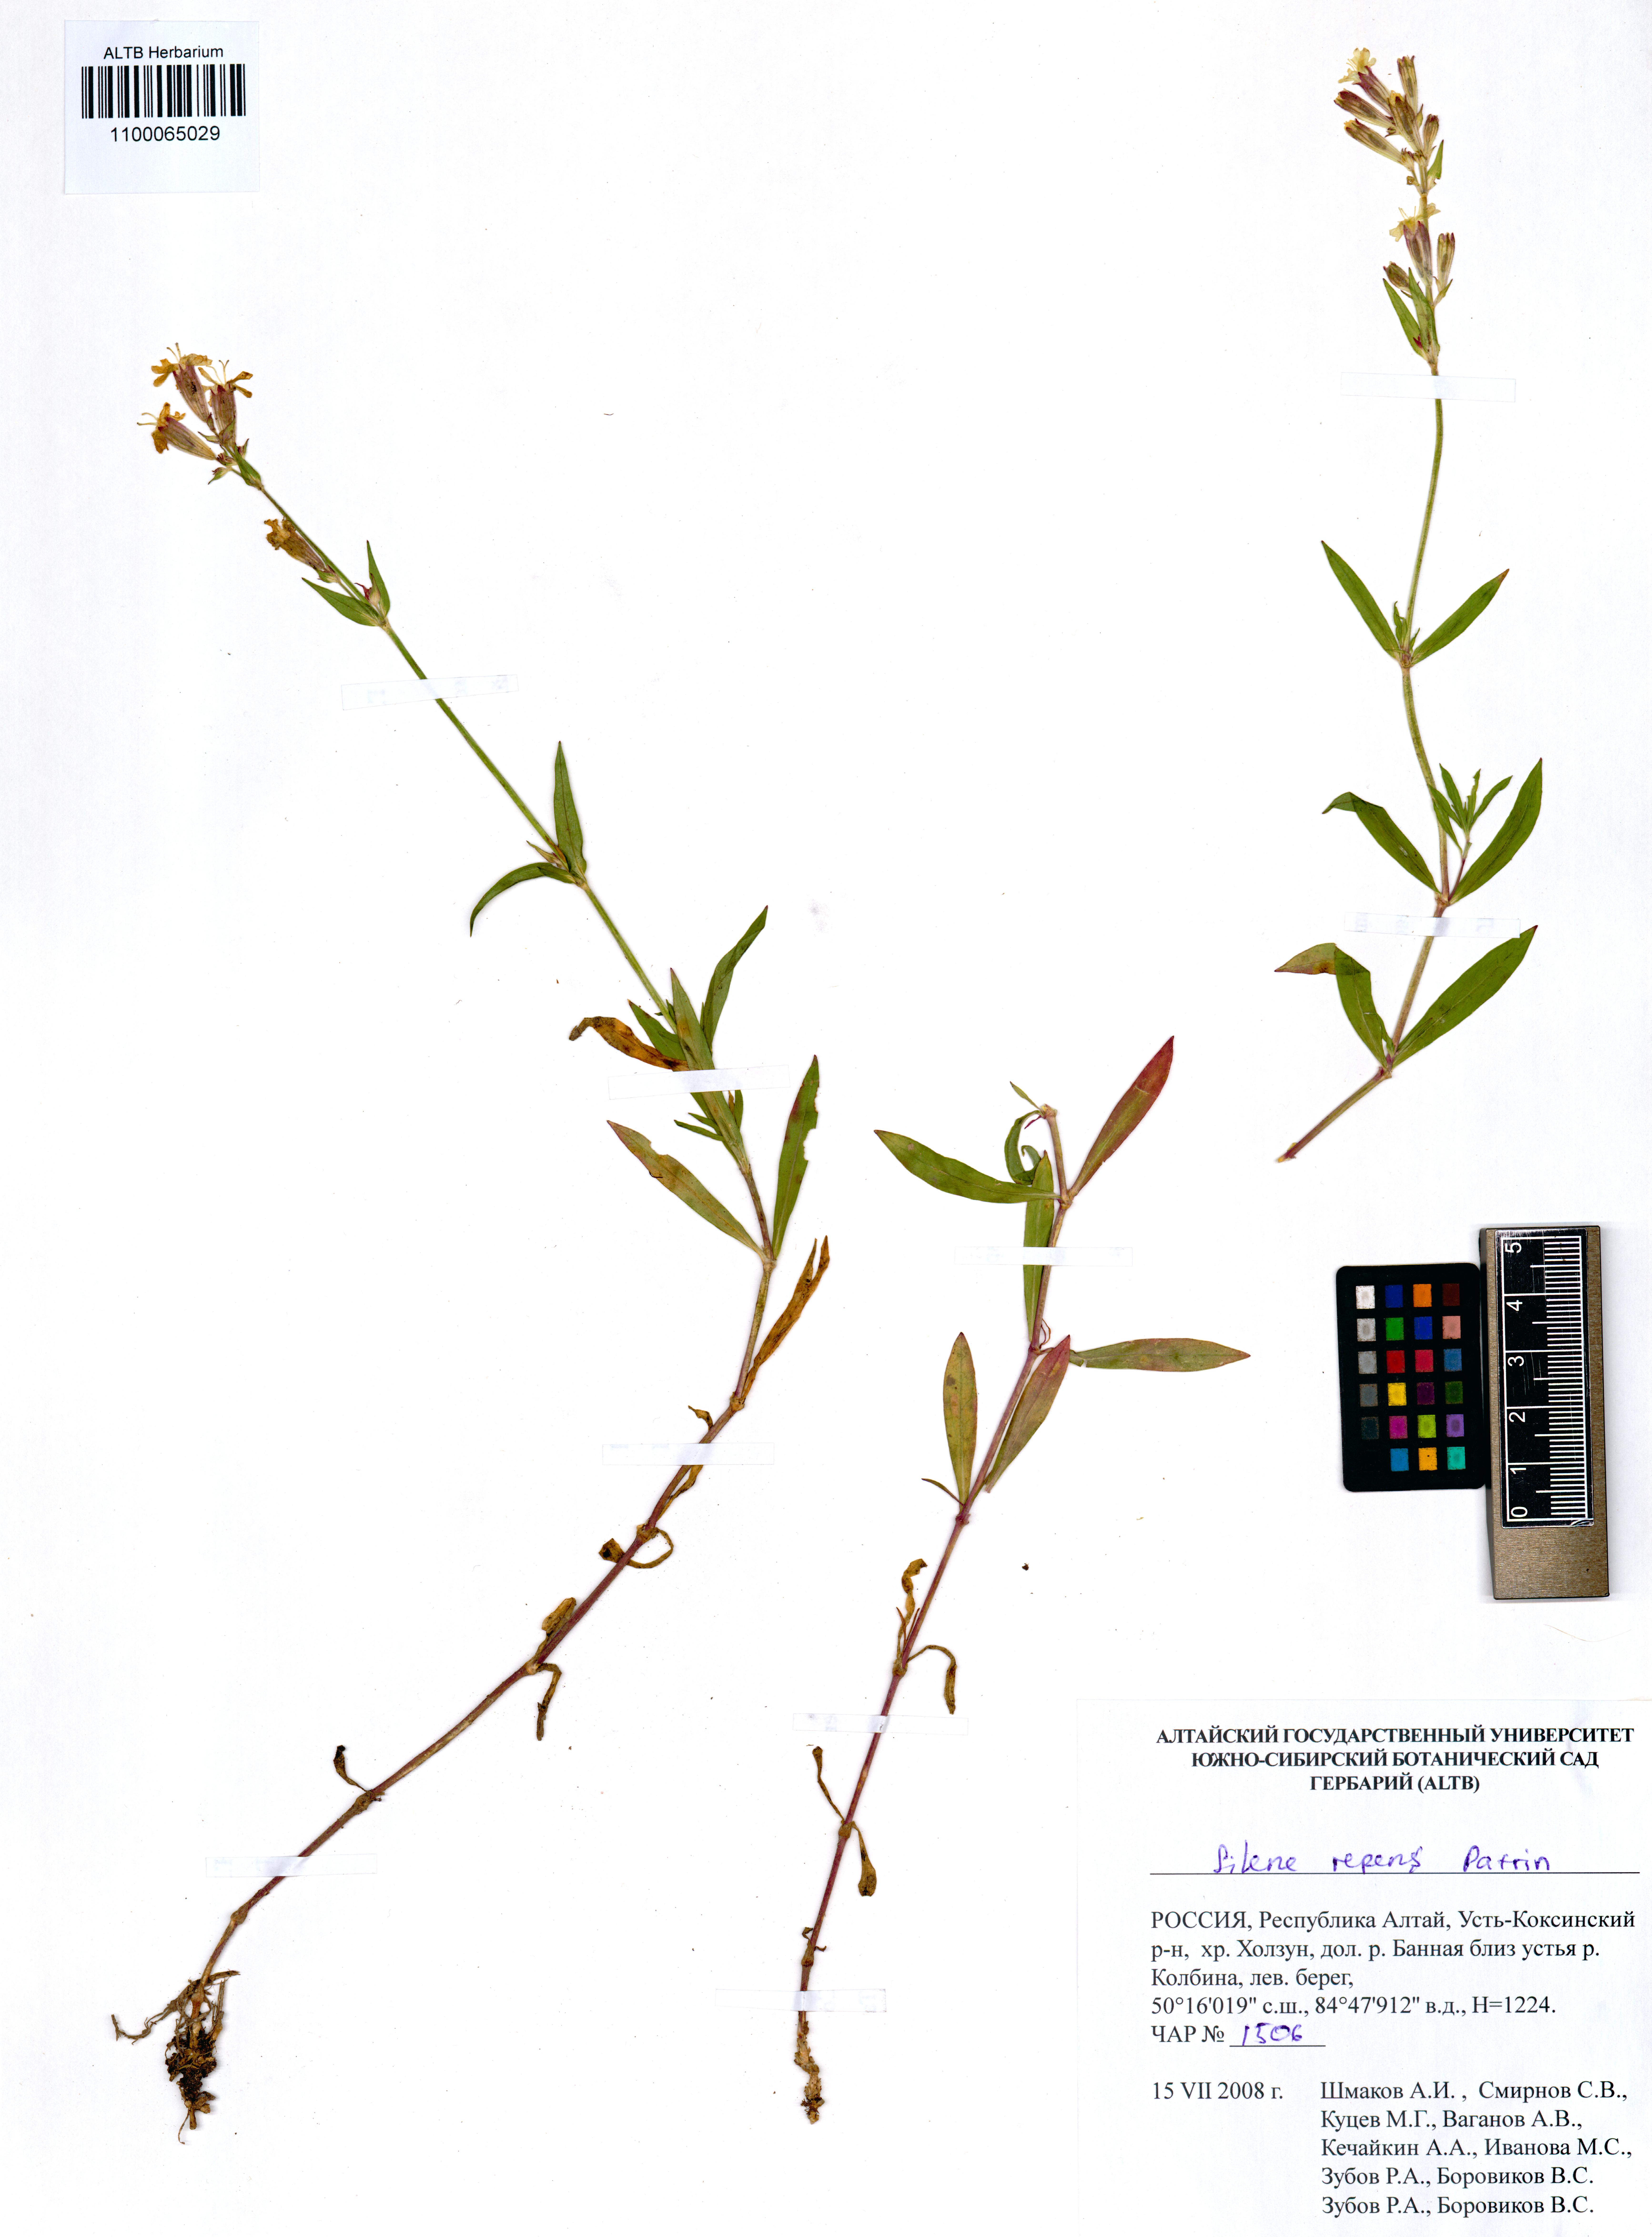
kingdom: Plantae
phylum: Tracheophyta
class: Magnoliopsida
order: Caryophyllales
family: Caryophyllaceae
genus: Silene
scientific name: Silene repens
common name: Pink campion
